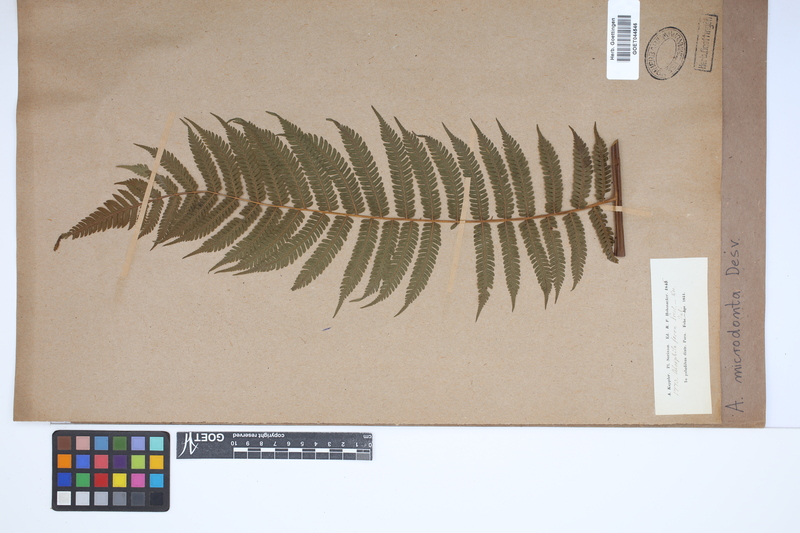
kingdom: Plantae
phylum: Tracheophyta
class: Polypodiopsida
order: Cyatheales
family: Cyatheaceae
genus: Cyathea
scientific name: Cyathea microdonta
